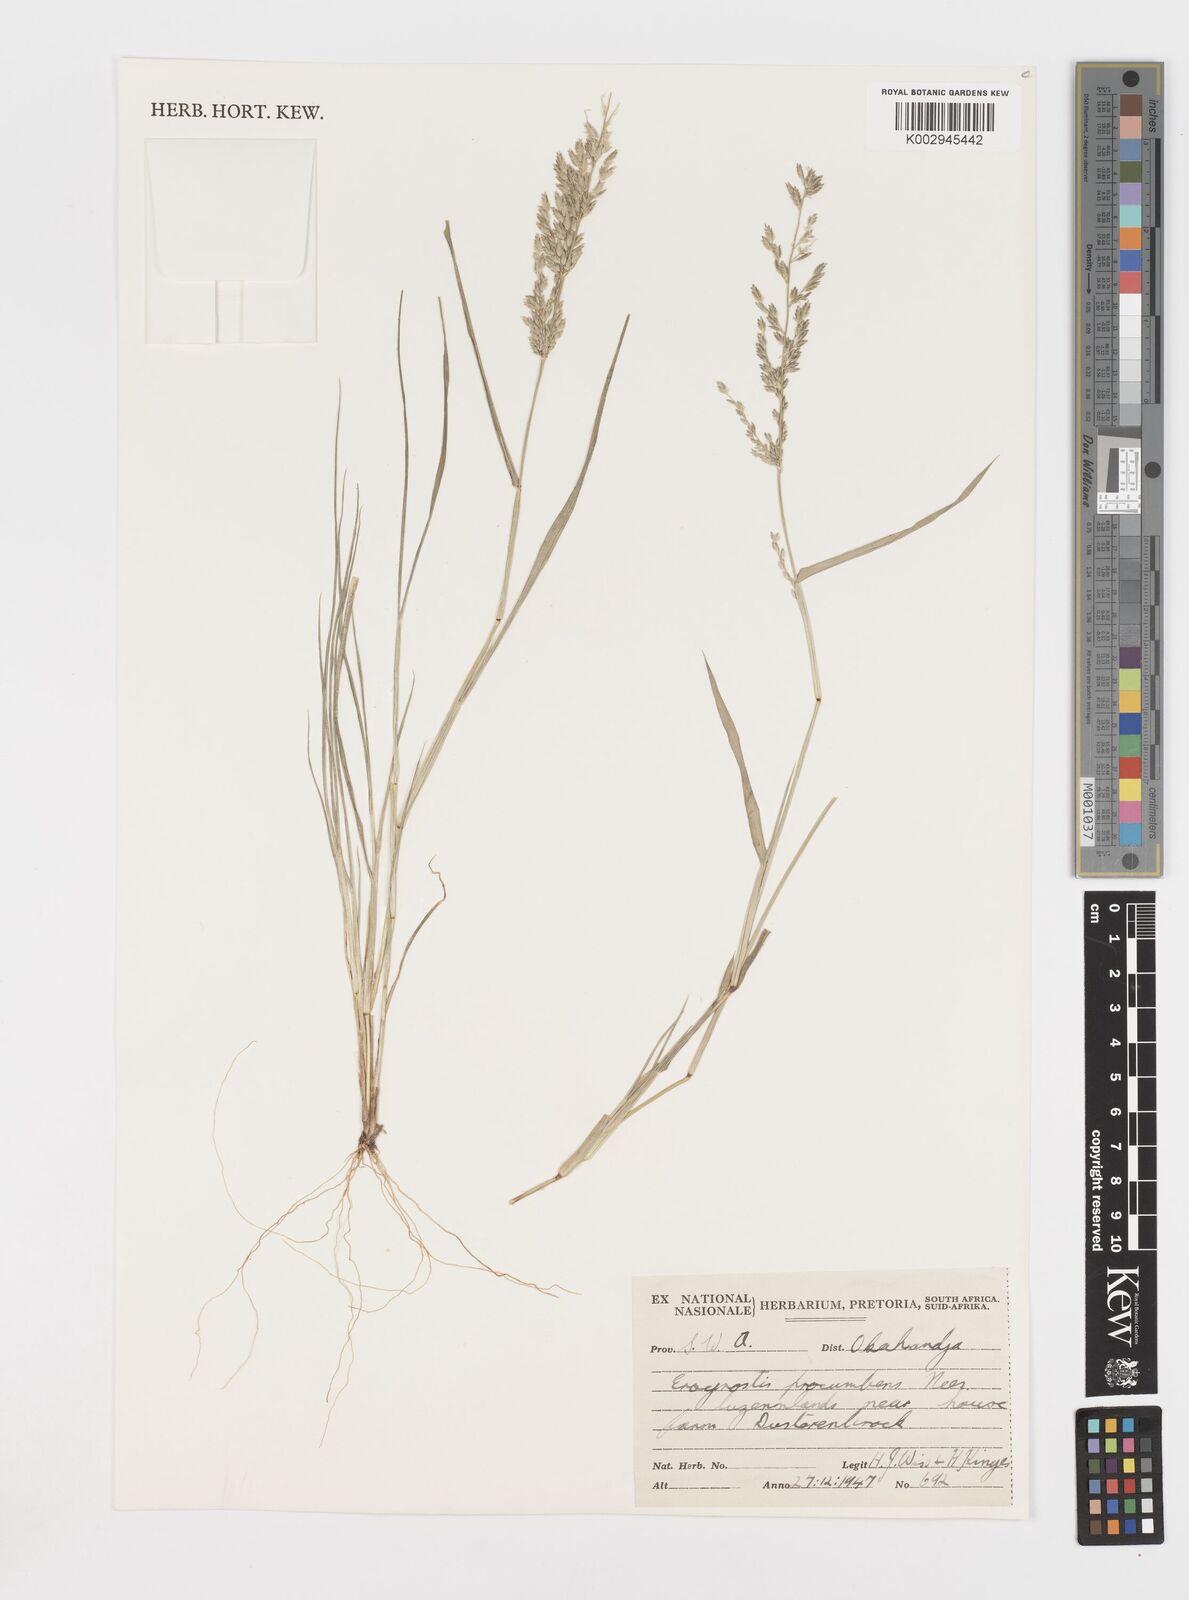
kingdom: Plantae
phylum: Tracheophyta
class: Liliopsida
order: Poales
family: Poaceae
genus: Eragrostis
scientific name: Eragrostis procumbens
